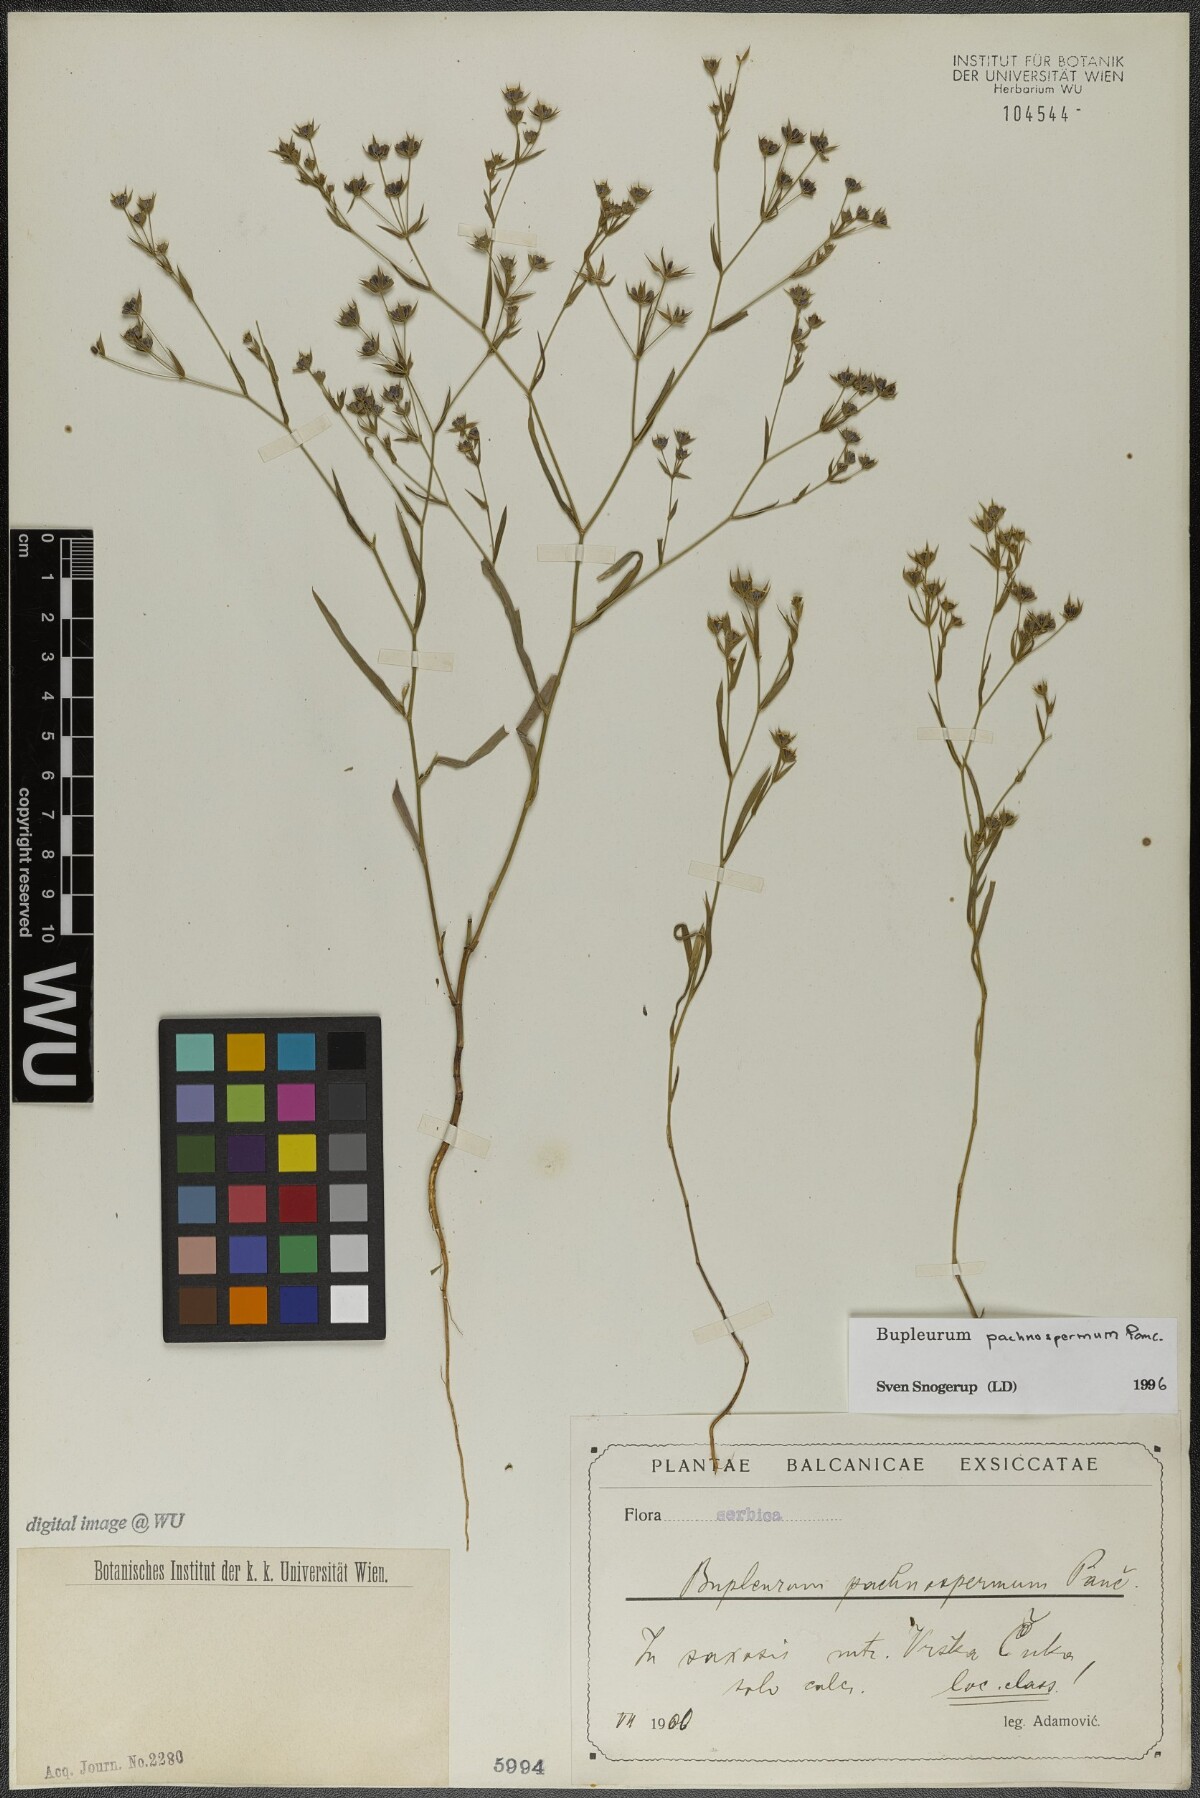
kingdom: Plantae
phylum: Tracheophyta
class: Magnoliopsida
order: Apiales
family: Apiaceae
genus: Bupleurum
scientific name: Bupleurum pachnospermum
